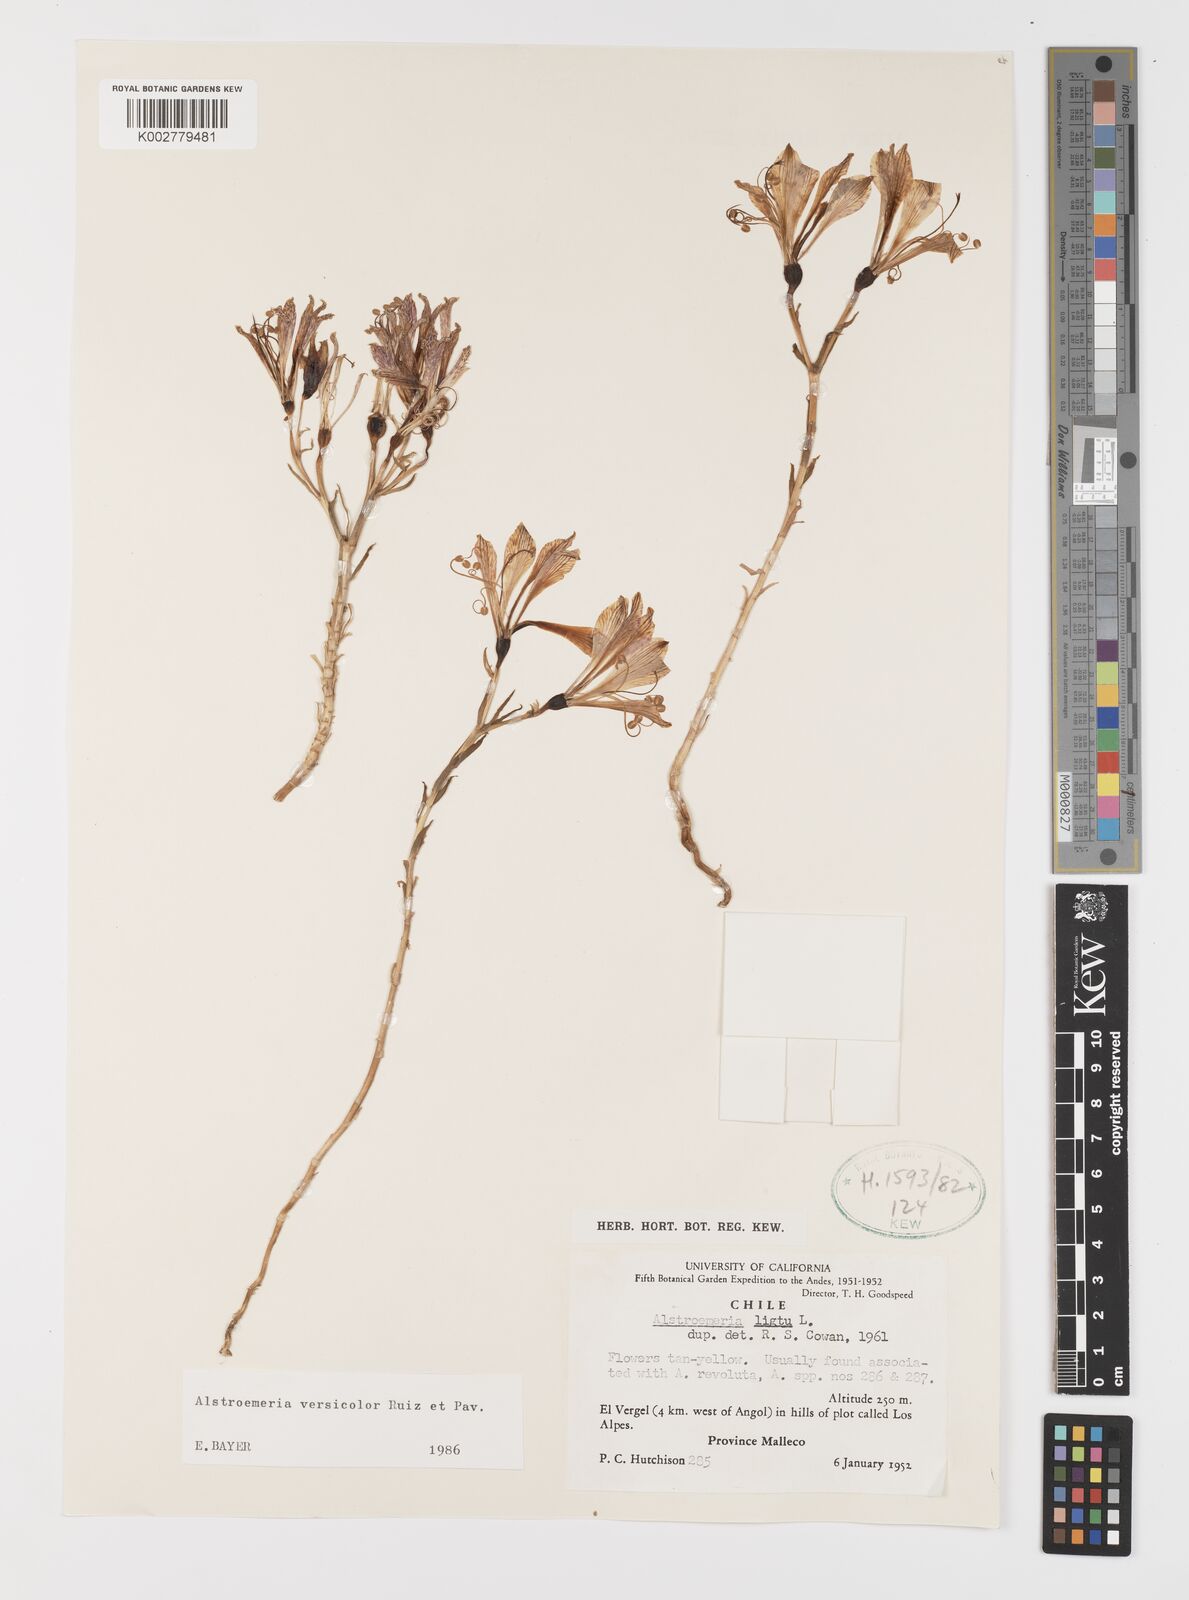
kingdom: Plantae
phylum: Tracheophyta
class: Liliopsida
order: Liliales
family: Alstroemeriaceae
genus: Alstroemeria
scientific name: Alstroemeria versicolor
